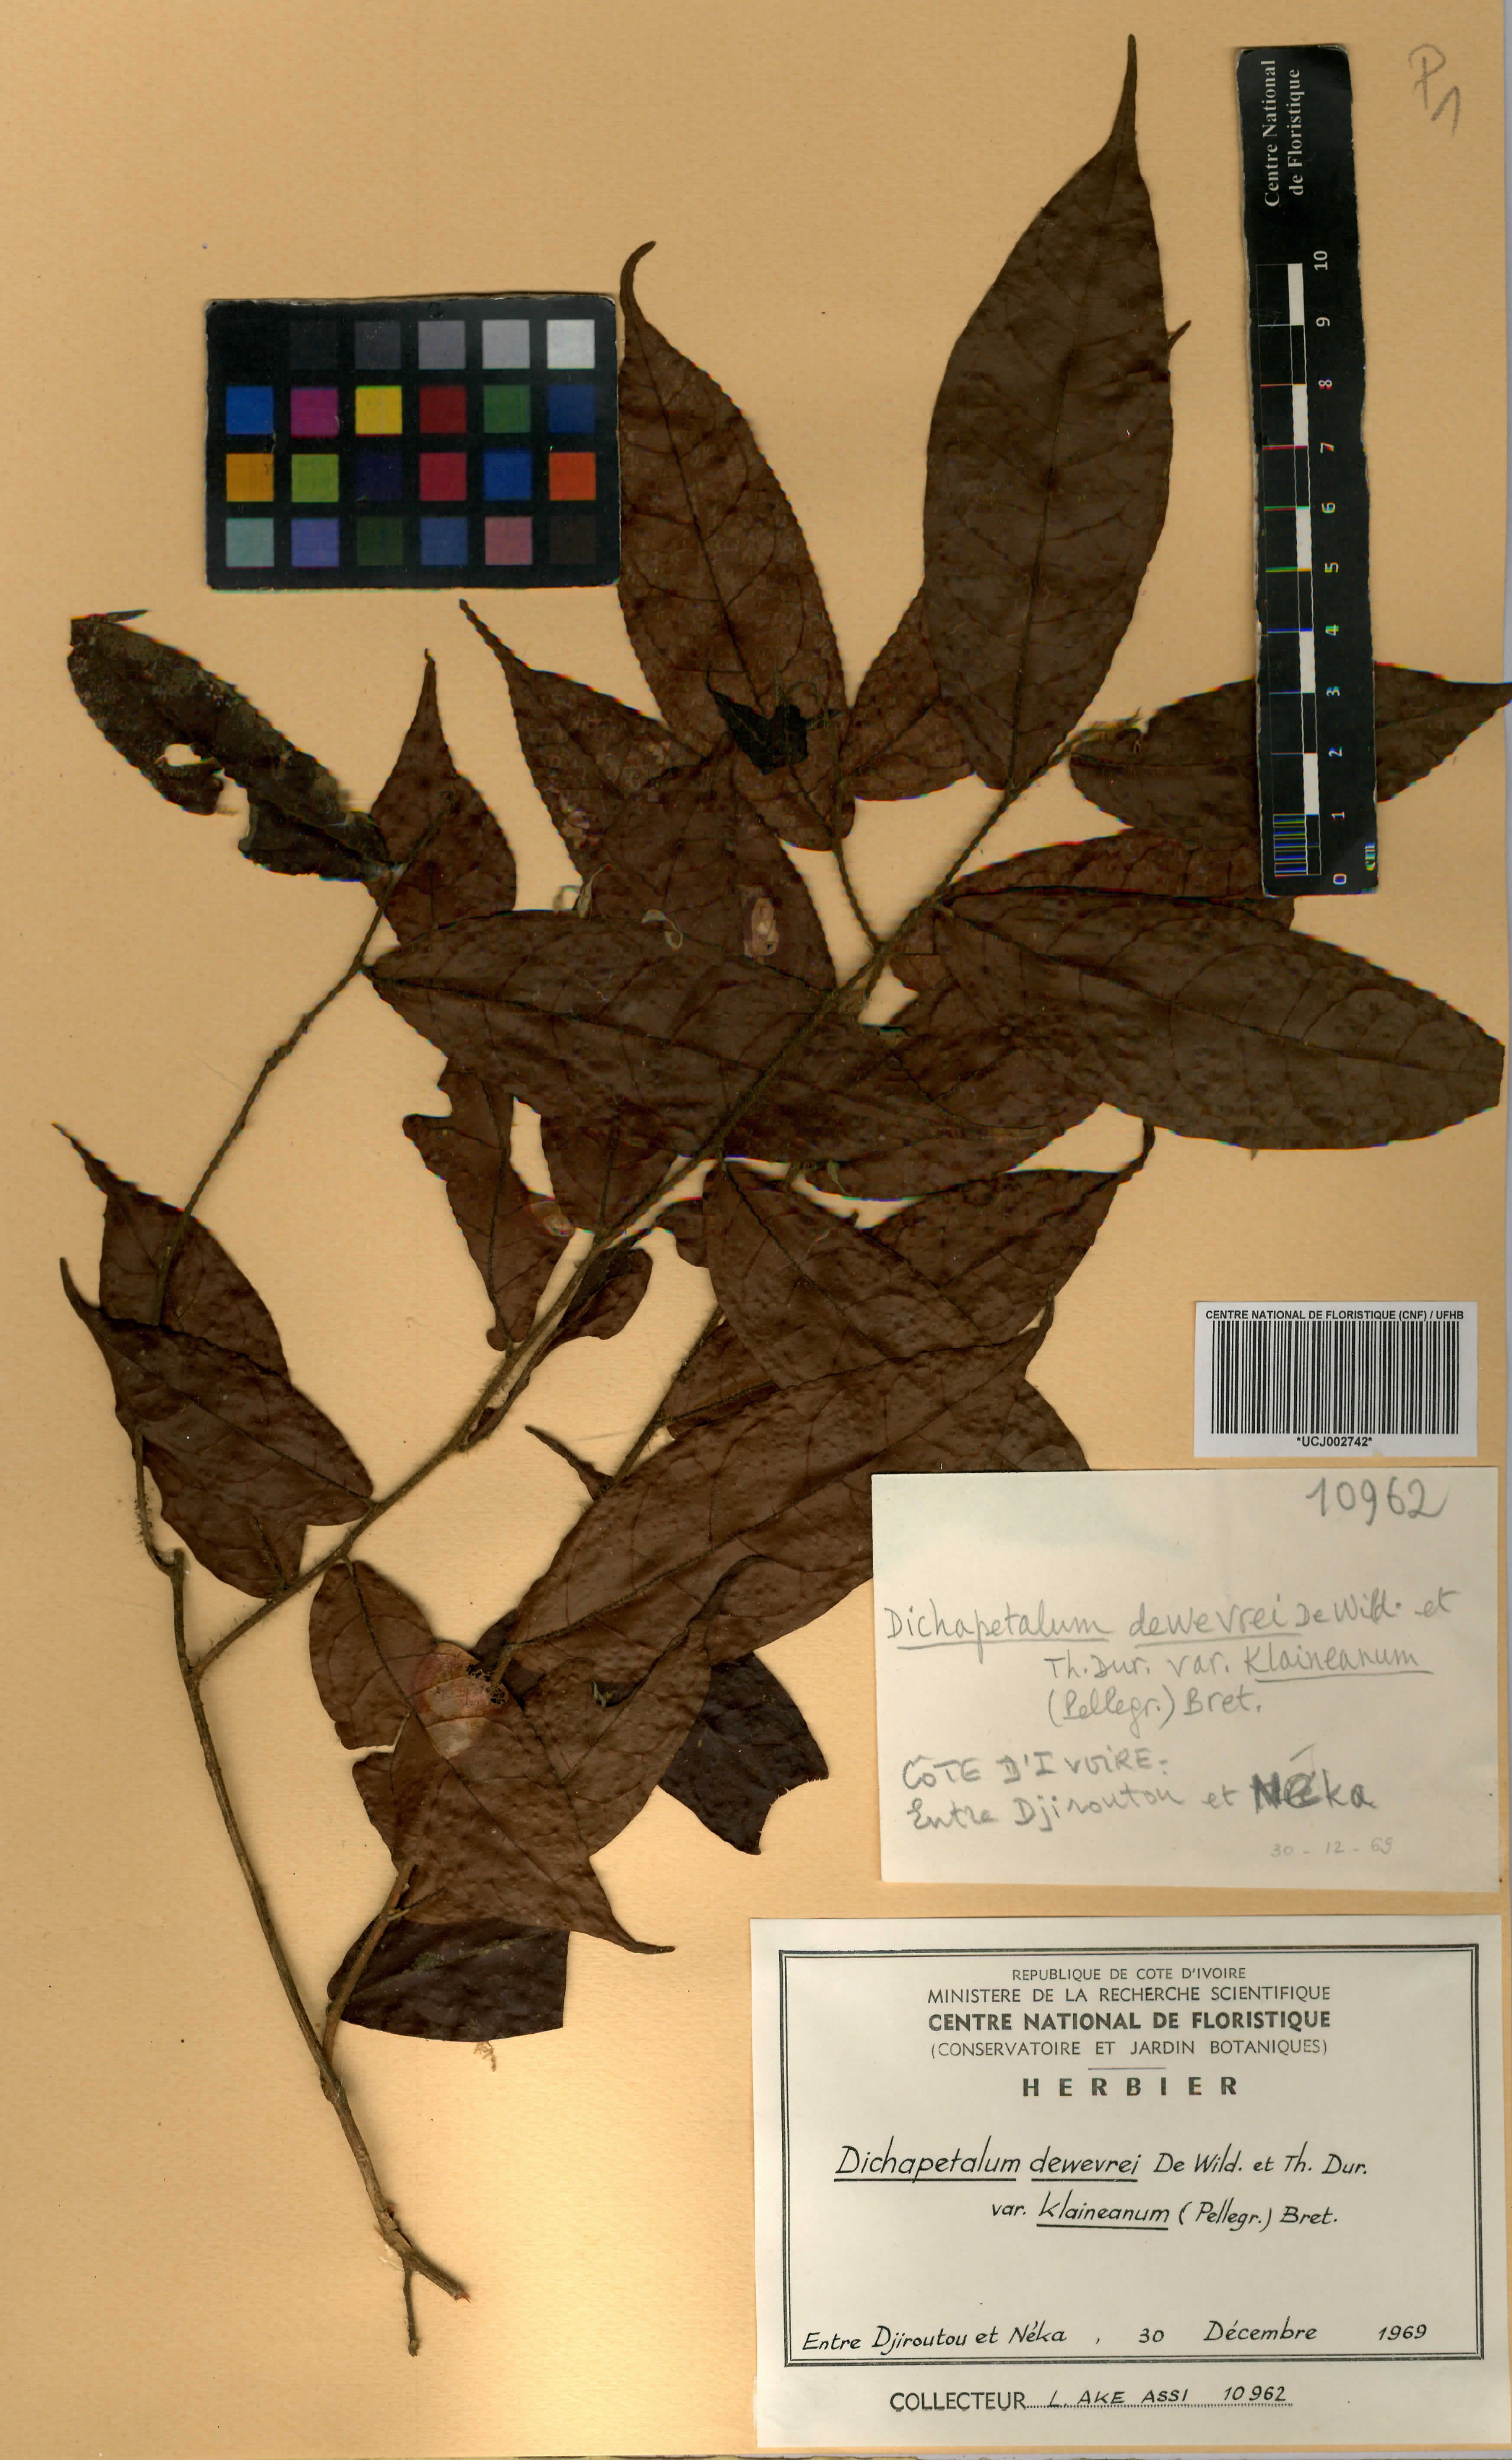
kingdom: Plantae
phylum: Tracheophyta
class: Magnoliopsida
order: Malpighiales
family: Dichapetalaceae
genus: Dichapetalum
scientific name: Dichapetalum dewevrei
